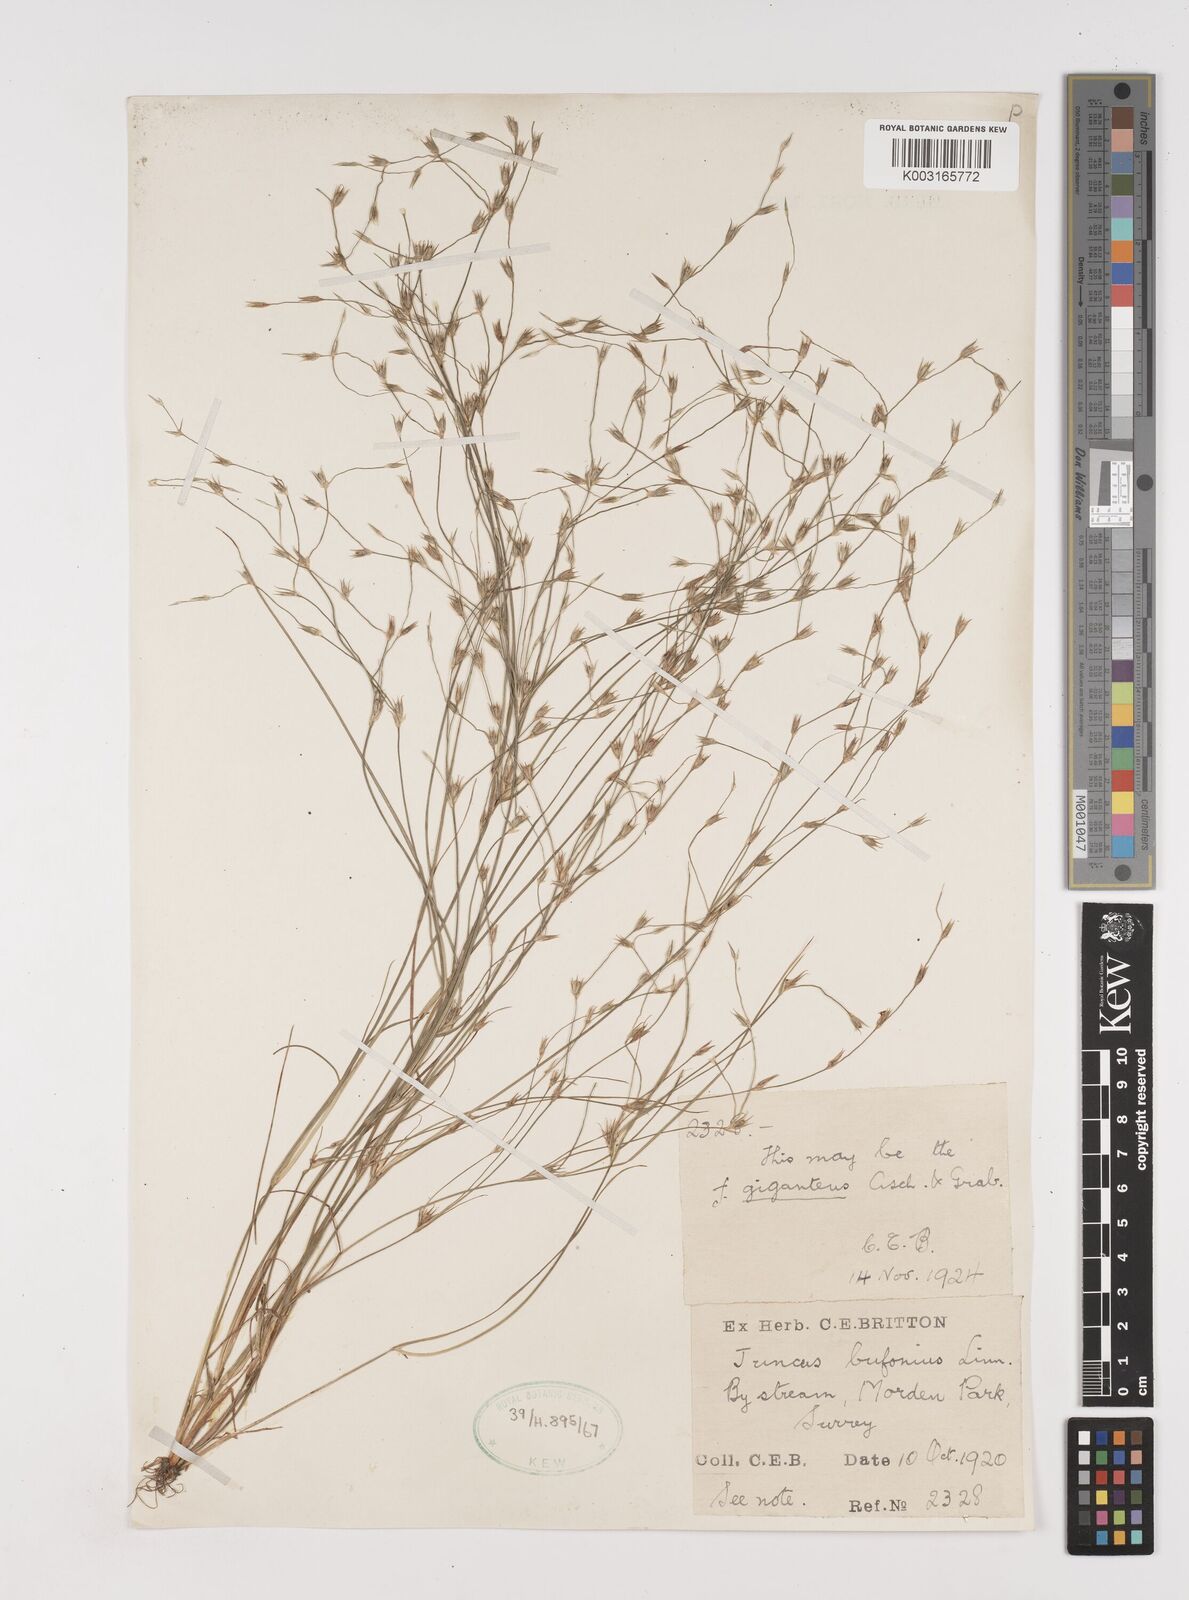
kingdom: Plantae
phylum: Tracheophyta
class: Liliopsida
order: Poales
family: Juncaceae
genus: Juncus
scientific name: Juncus bufonius
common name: Toad rush
